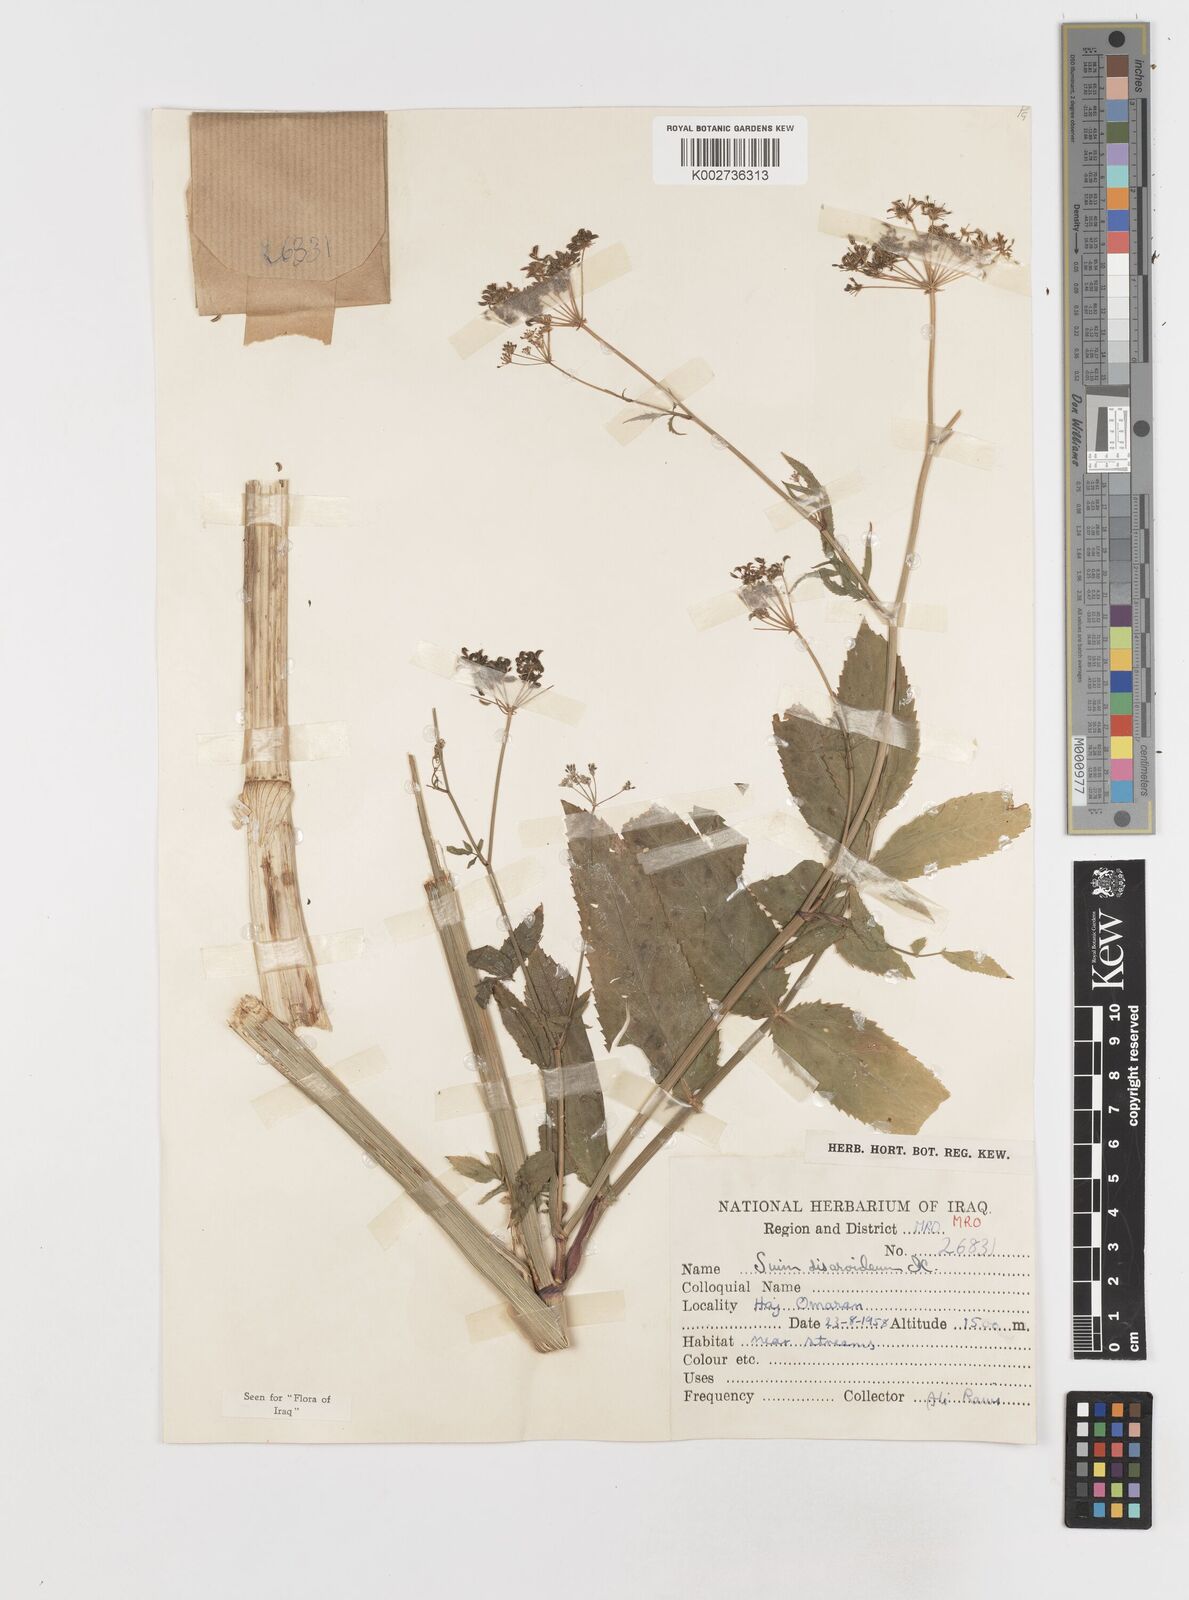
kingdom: Plantae
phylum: Tracheophyta
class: Magnoliopsida
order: Apiales
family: Apiaceae
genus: Sium
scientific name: Sium sisarum
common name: Skirret
